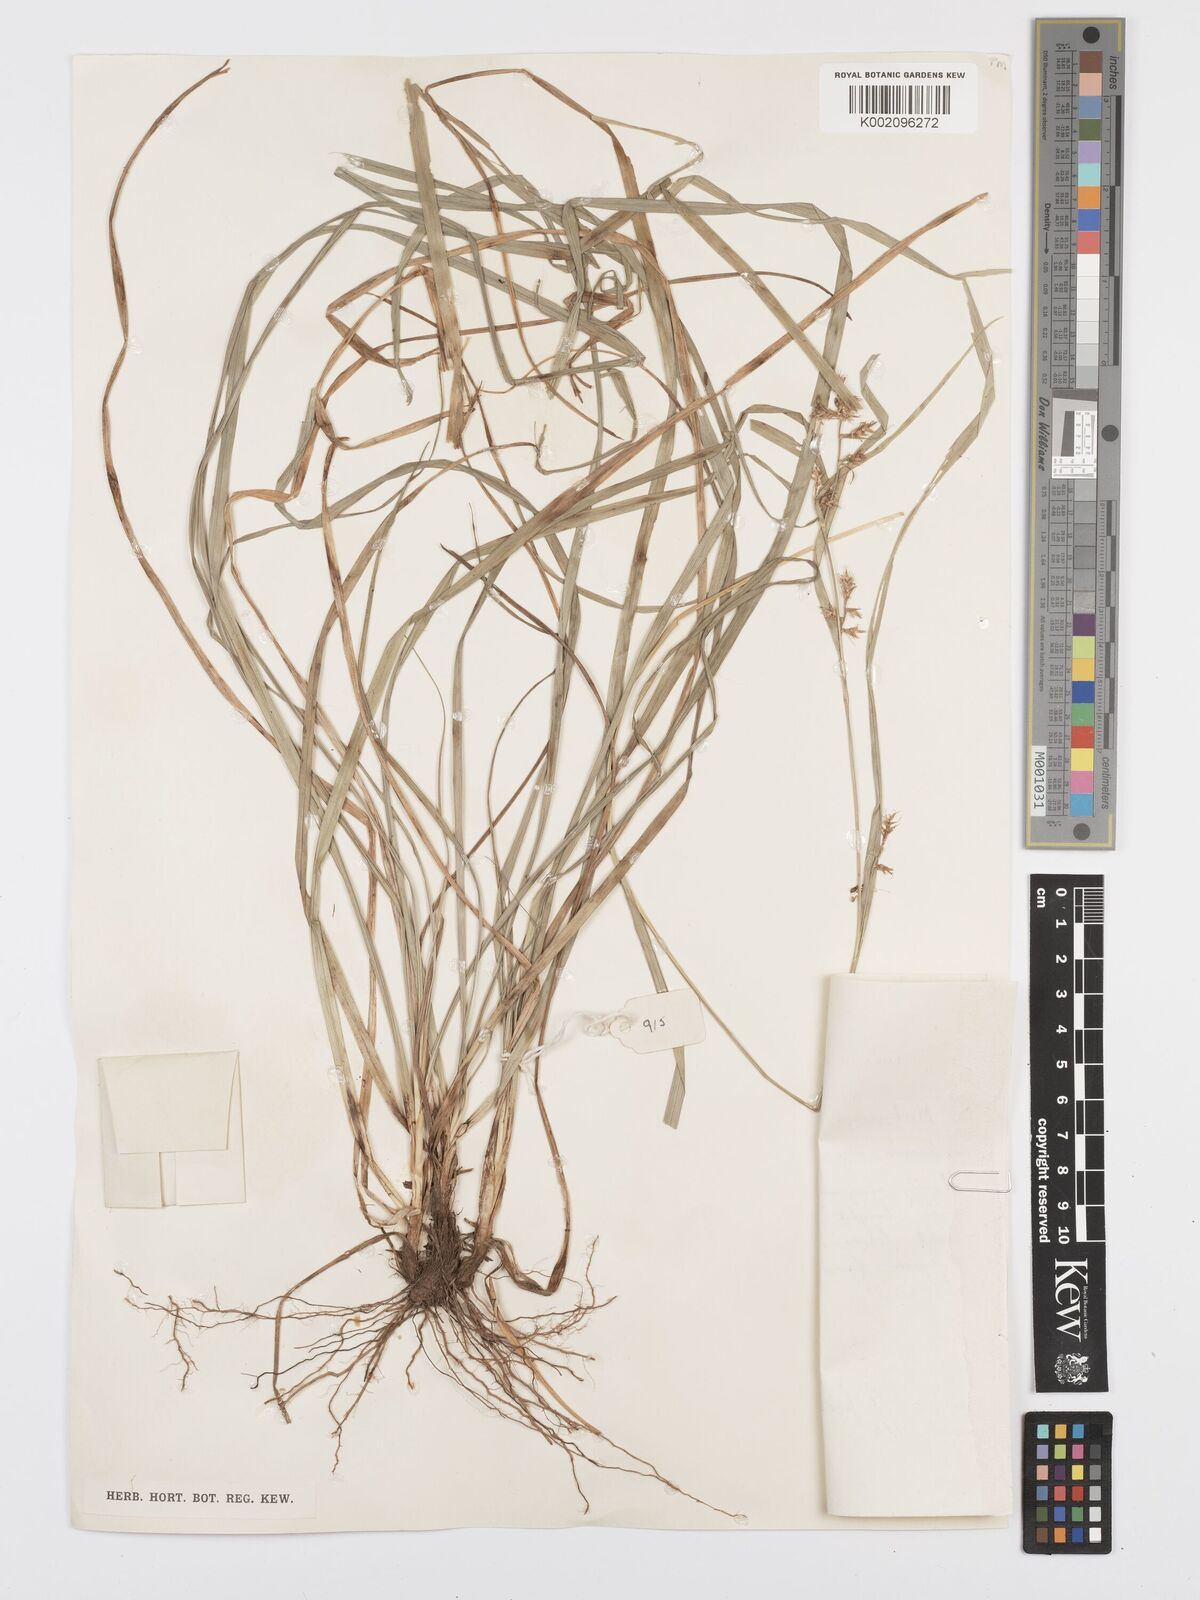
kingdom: Plantae
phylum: Tracheophyta
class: Liliopsida
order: Poales
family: Cyperaceae
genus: Carex
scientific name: Carex spicatopaniculata
